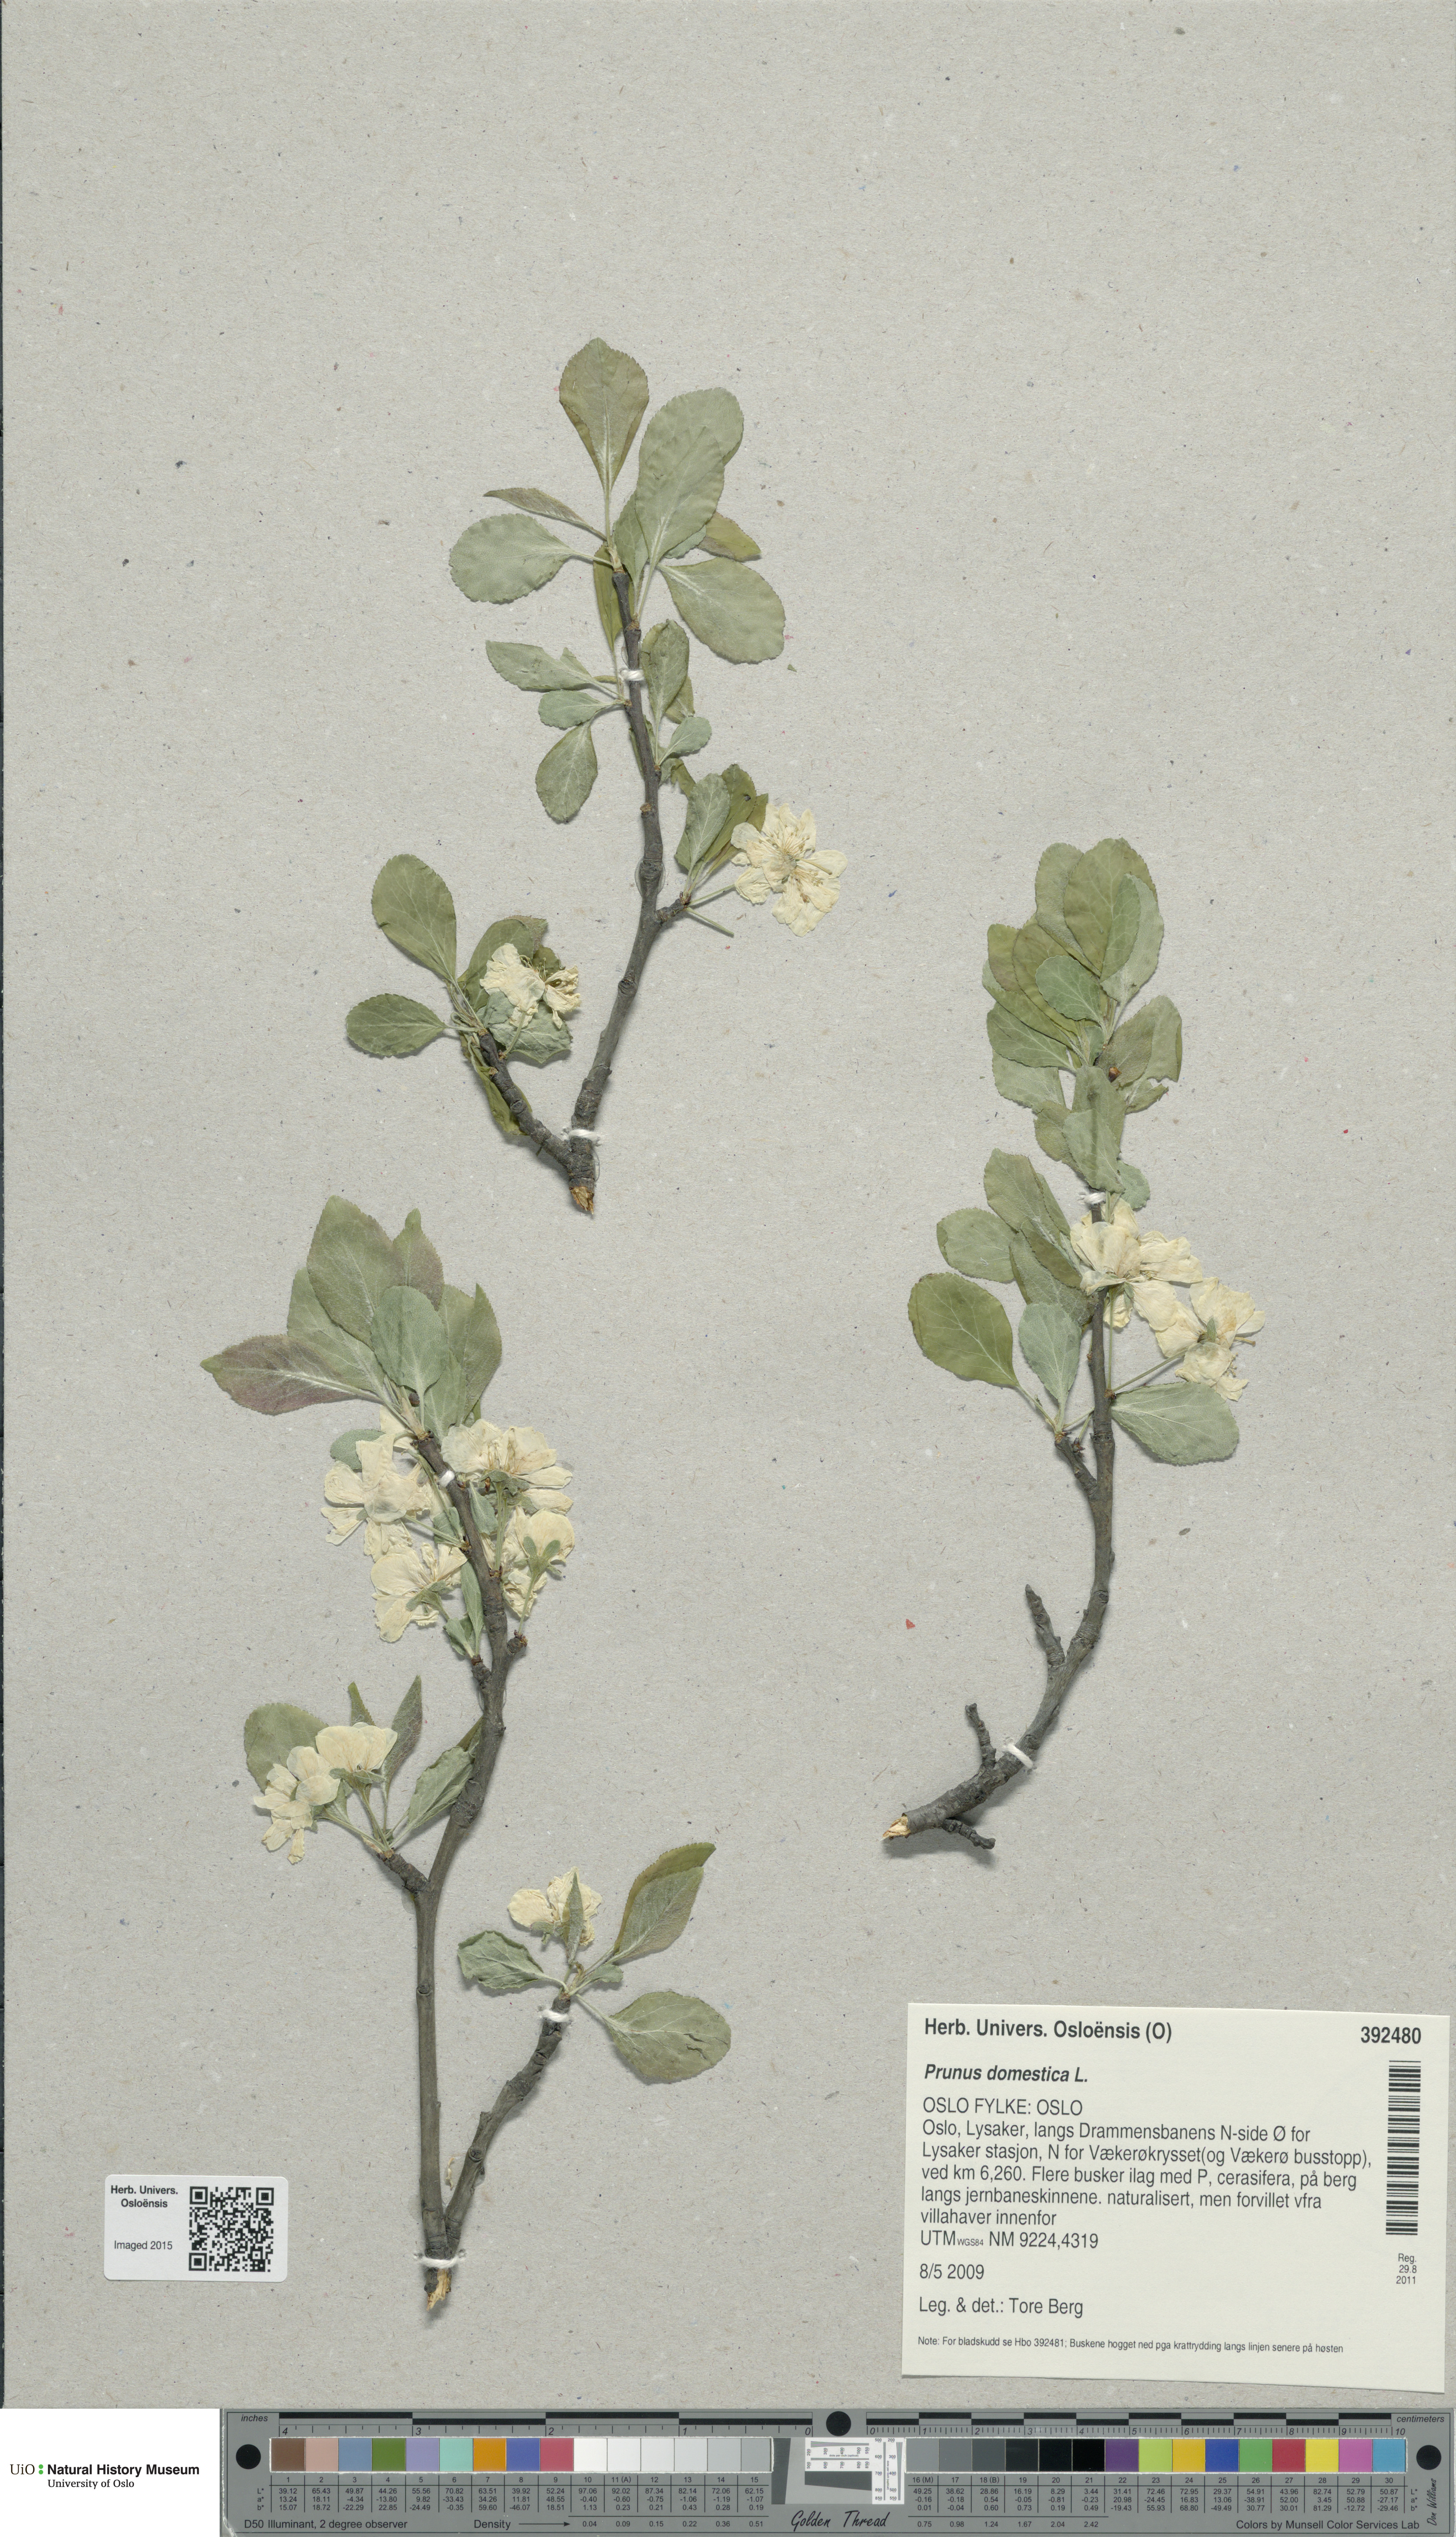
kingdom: Plantae
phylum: Tracheophyta
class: Magnoliopsida
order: Rosales
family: Rosaceae
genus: Prunus
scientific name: Prunus domestica
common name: Wild plum
